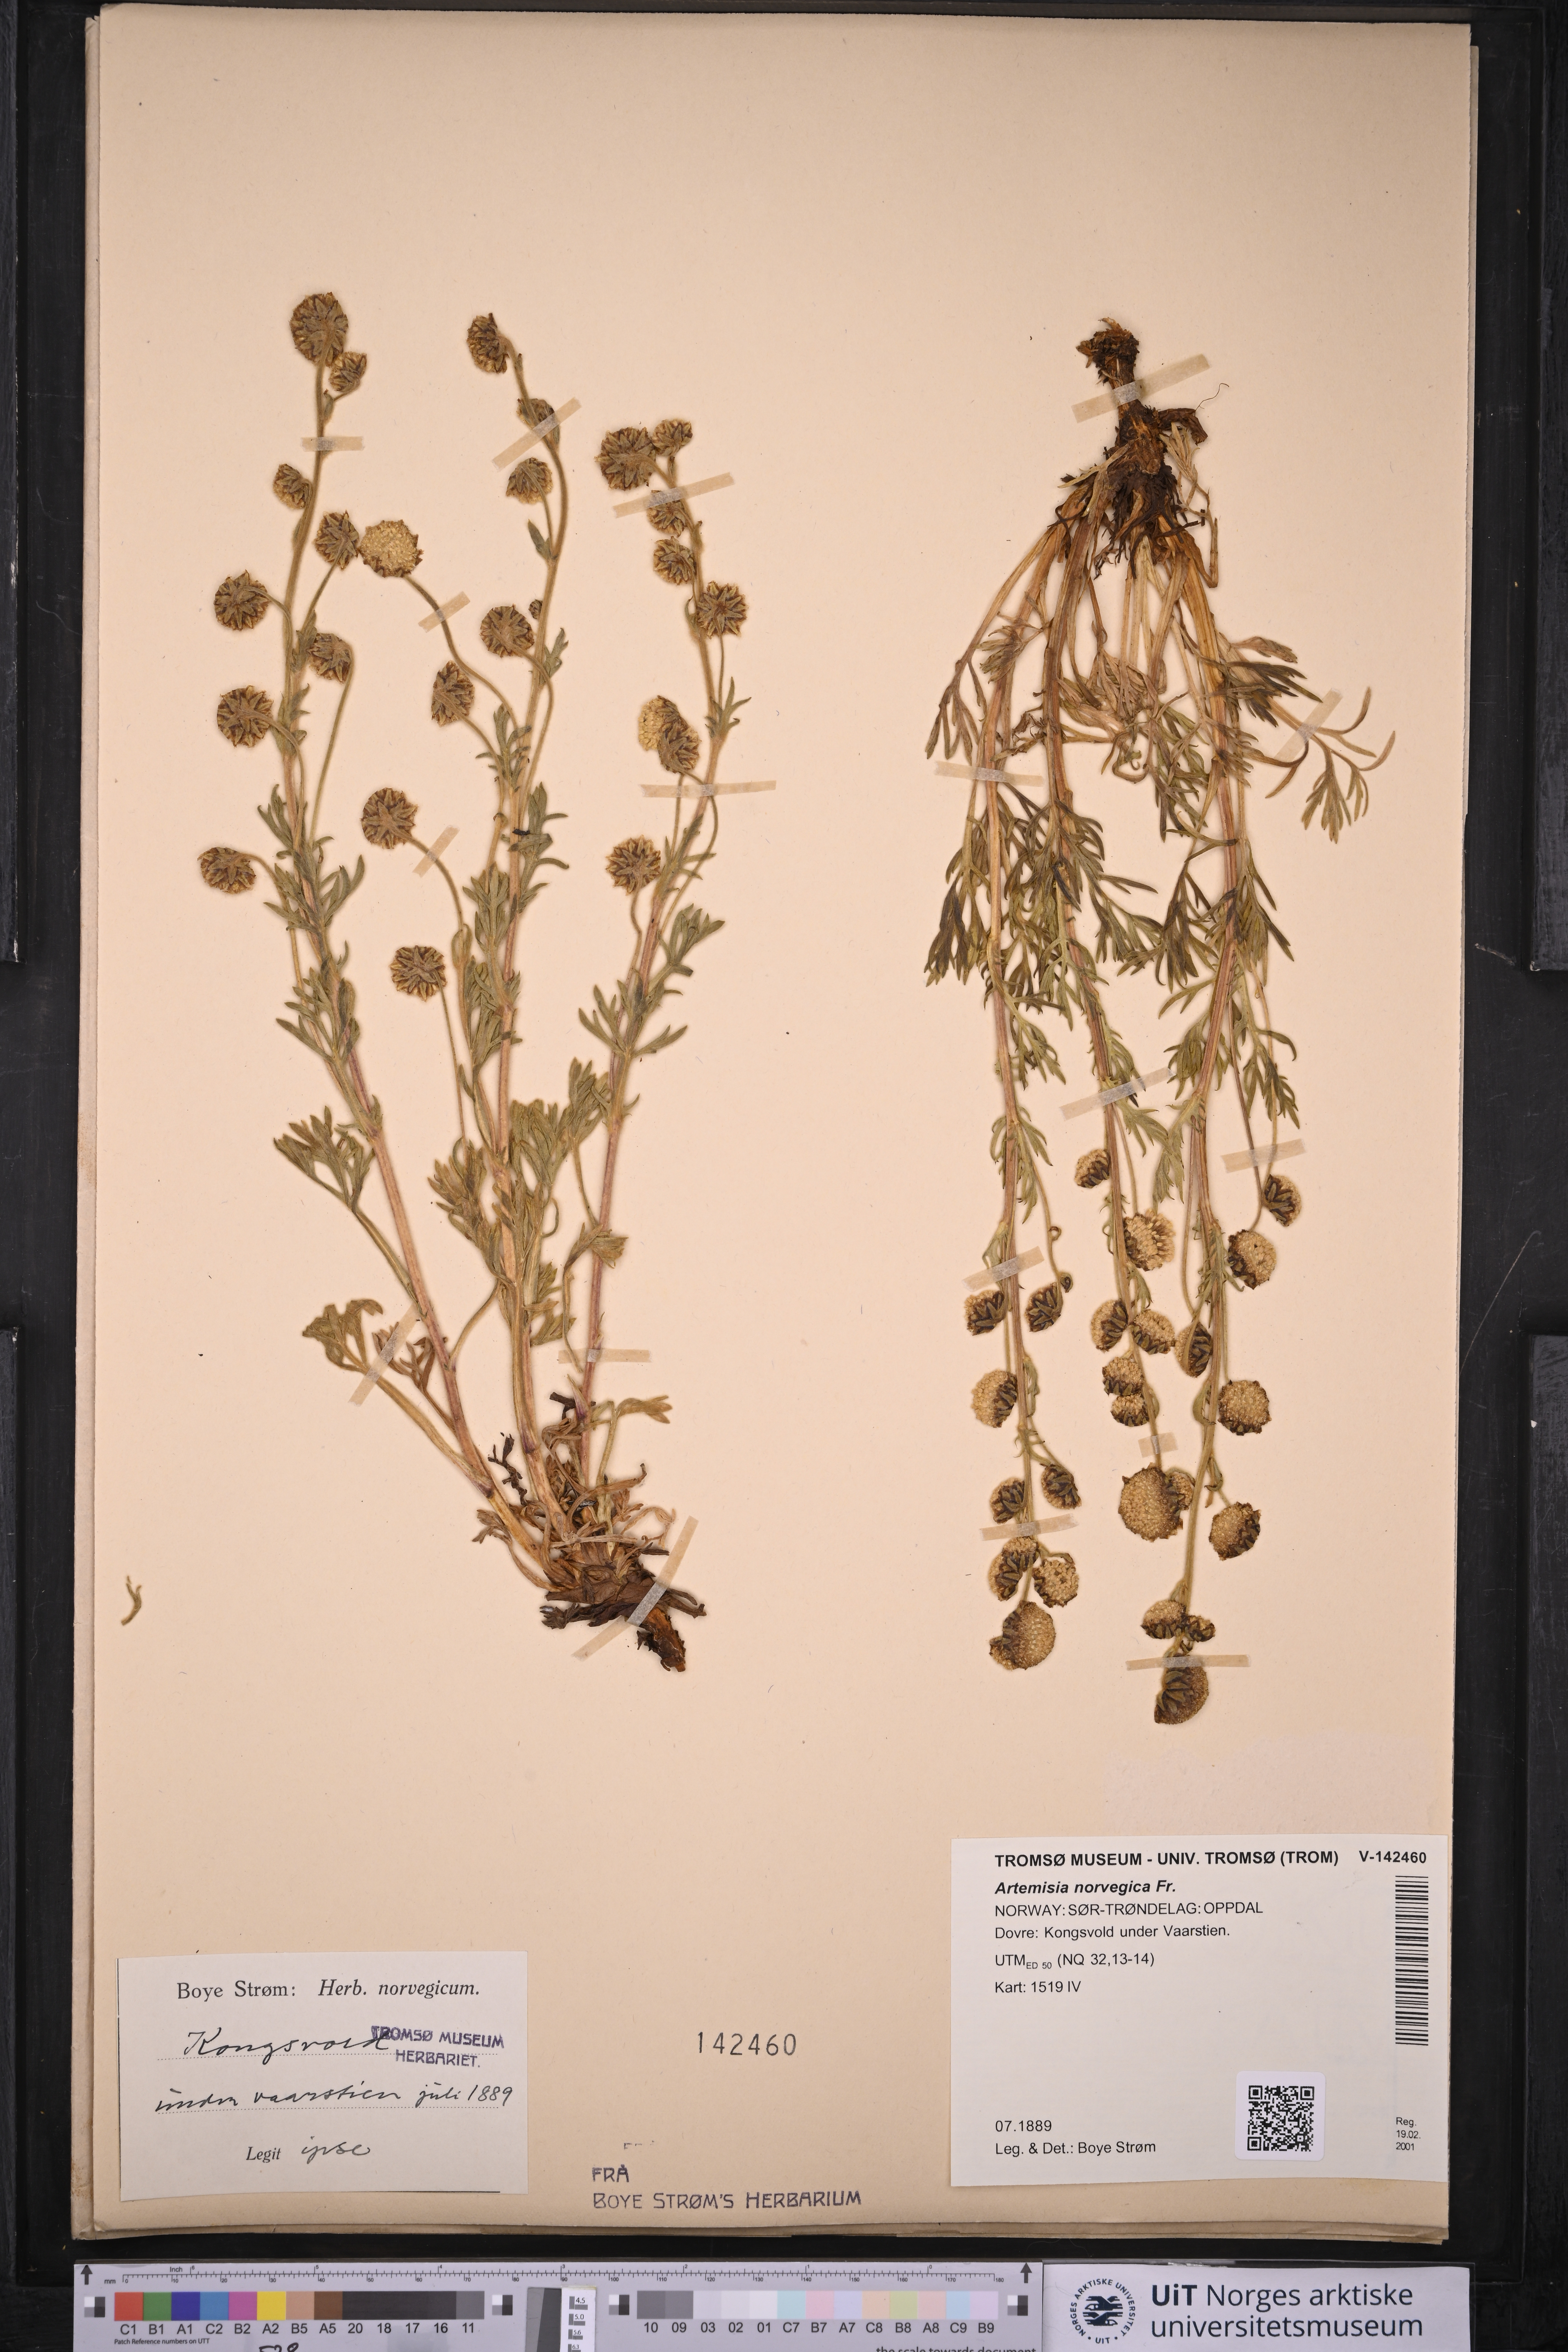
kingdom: Plantae
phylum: Tracheophyta
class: Magnoliopsida
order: Asterales
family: Asteraceae
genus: Artemisia
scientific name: Artemisia norvegica
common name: Norwegian mugwort
